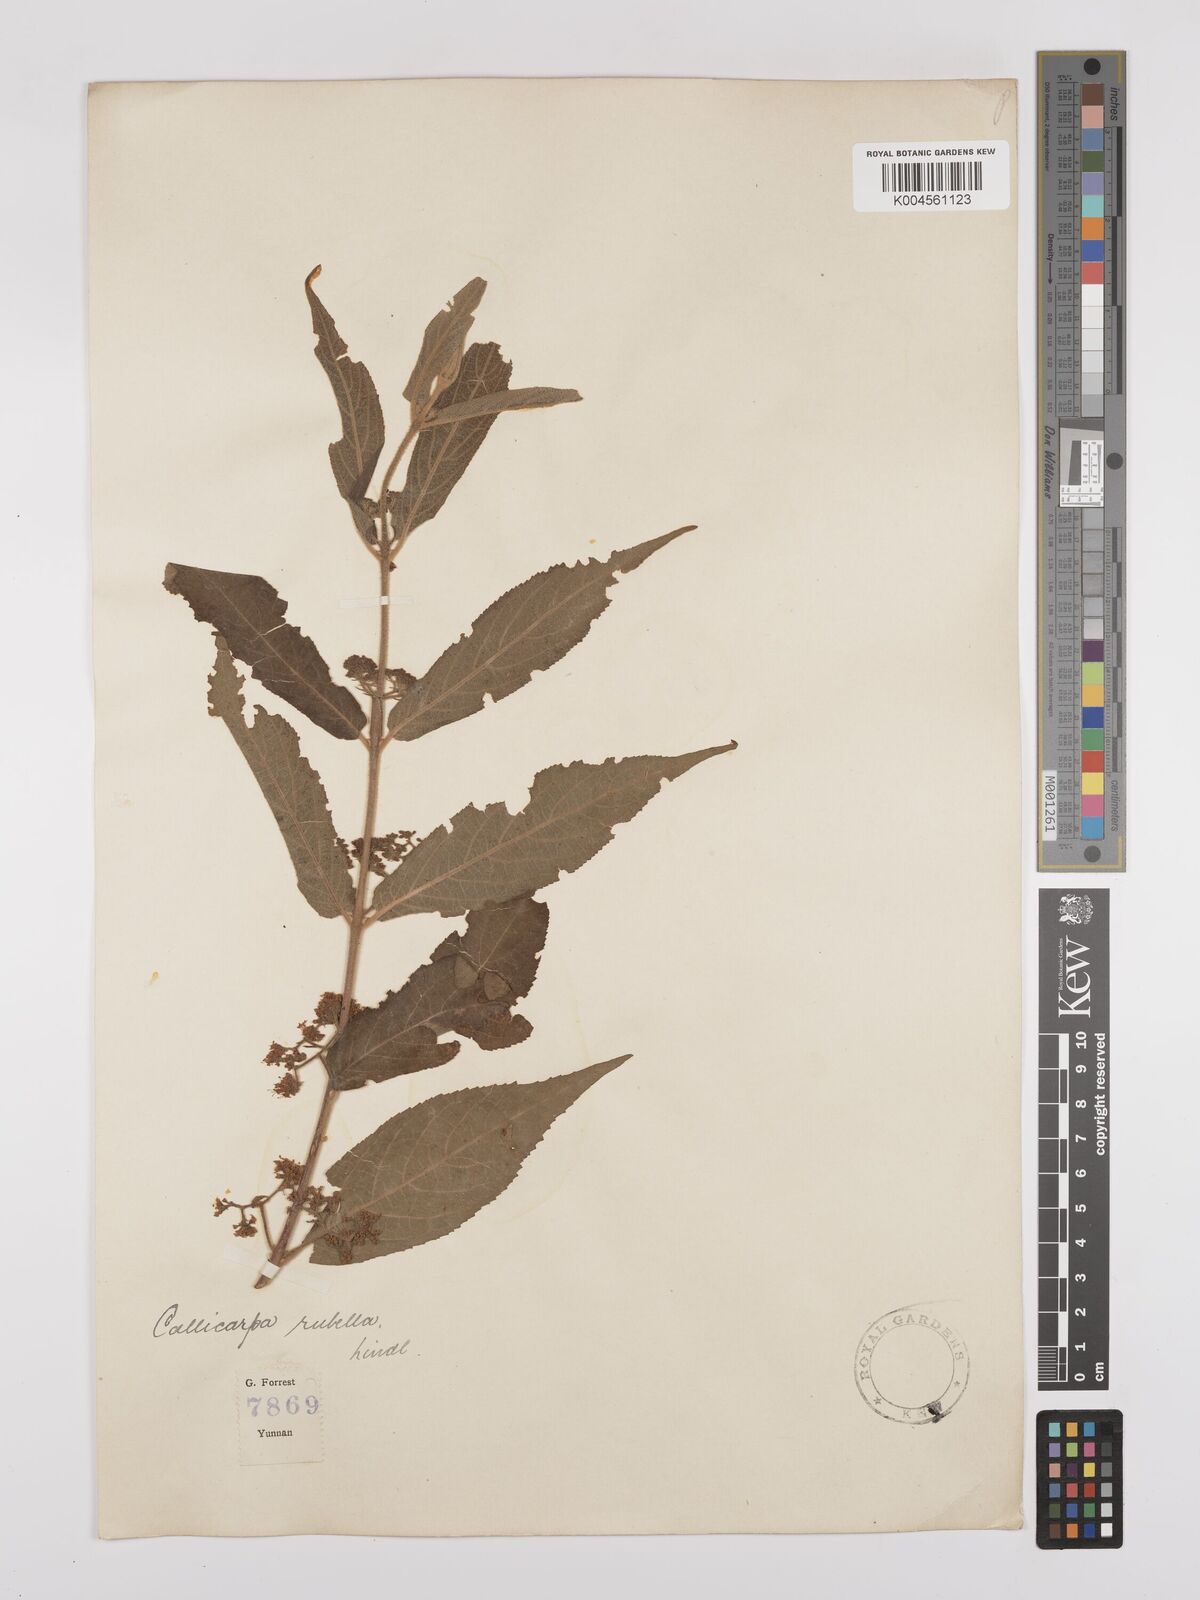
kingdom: Plantae
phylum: Tracheophyta
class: Magnoliopsida
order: Lamiales
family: Lamiaceae
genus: Callicarpa
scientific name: Callicarpa rubella
